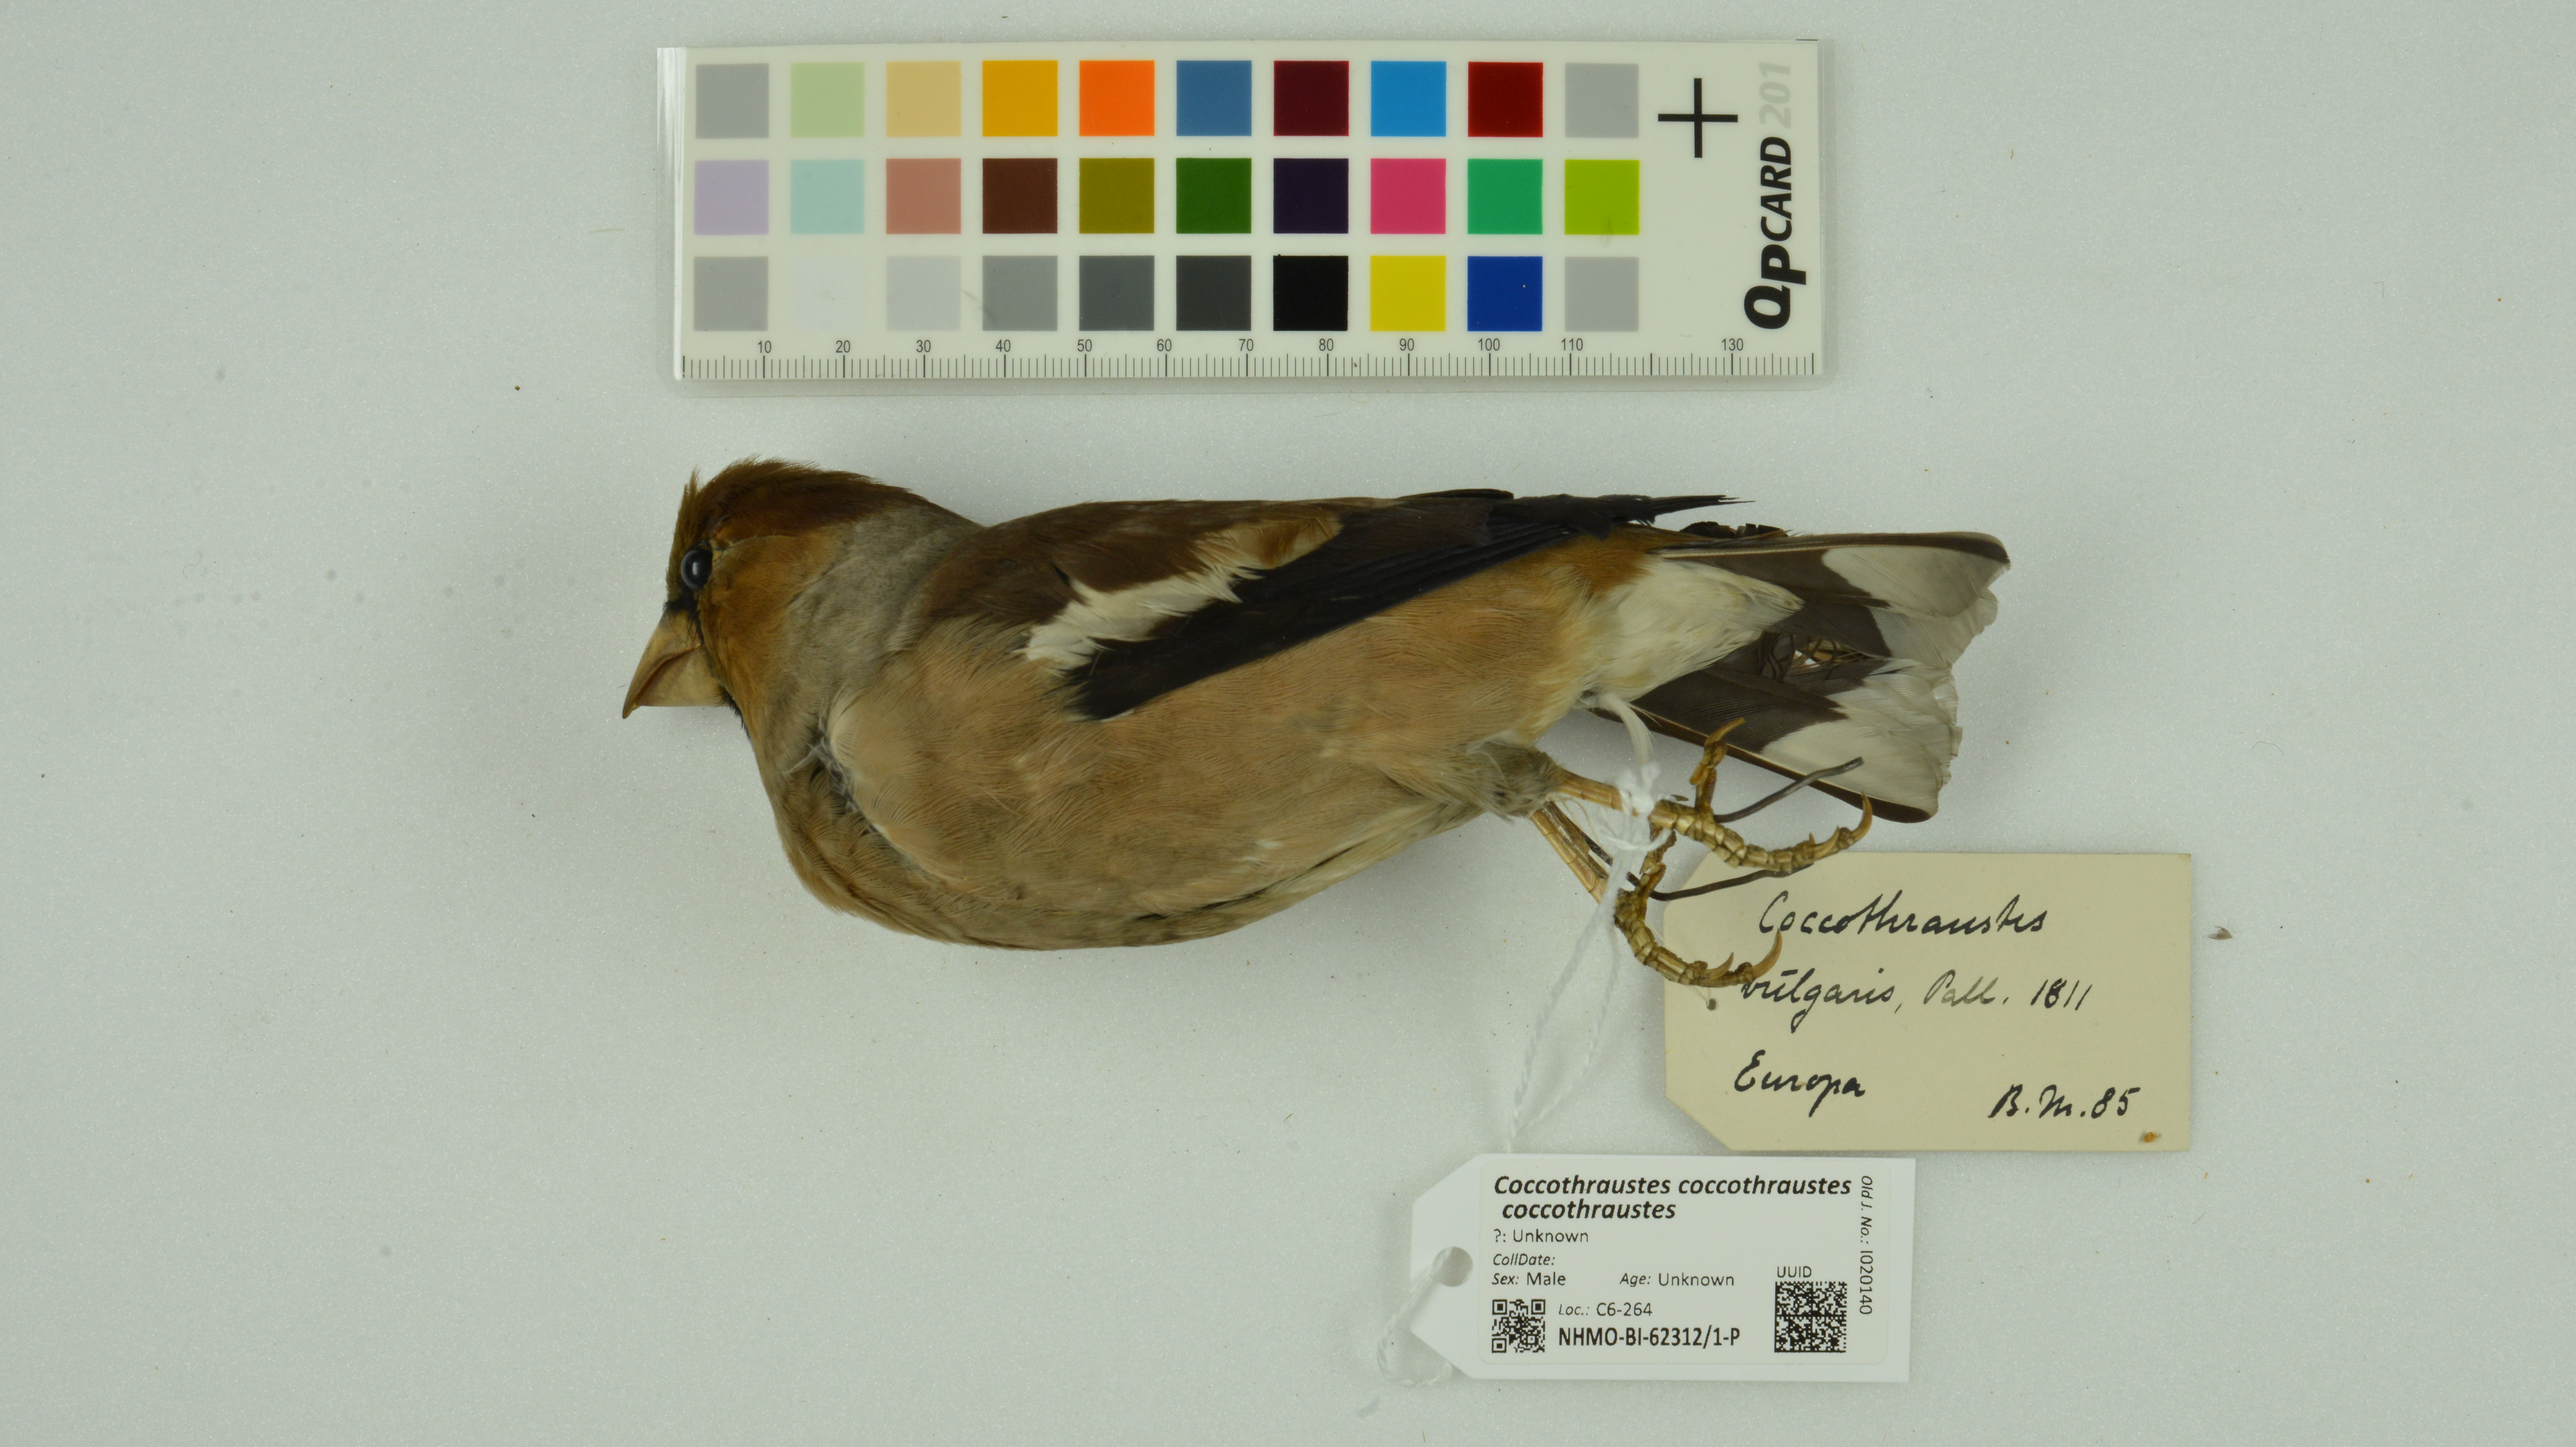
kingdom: Animalia
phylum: Chordata
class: Aves
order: Passeriformes
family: Fringillidae
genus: Coccothraustes
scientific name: Coccothraustes coccothraustes
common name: Hawfinch
